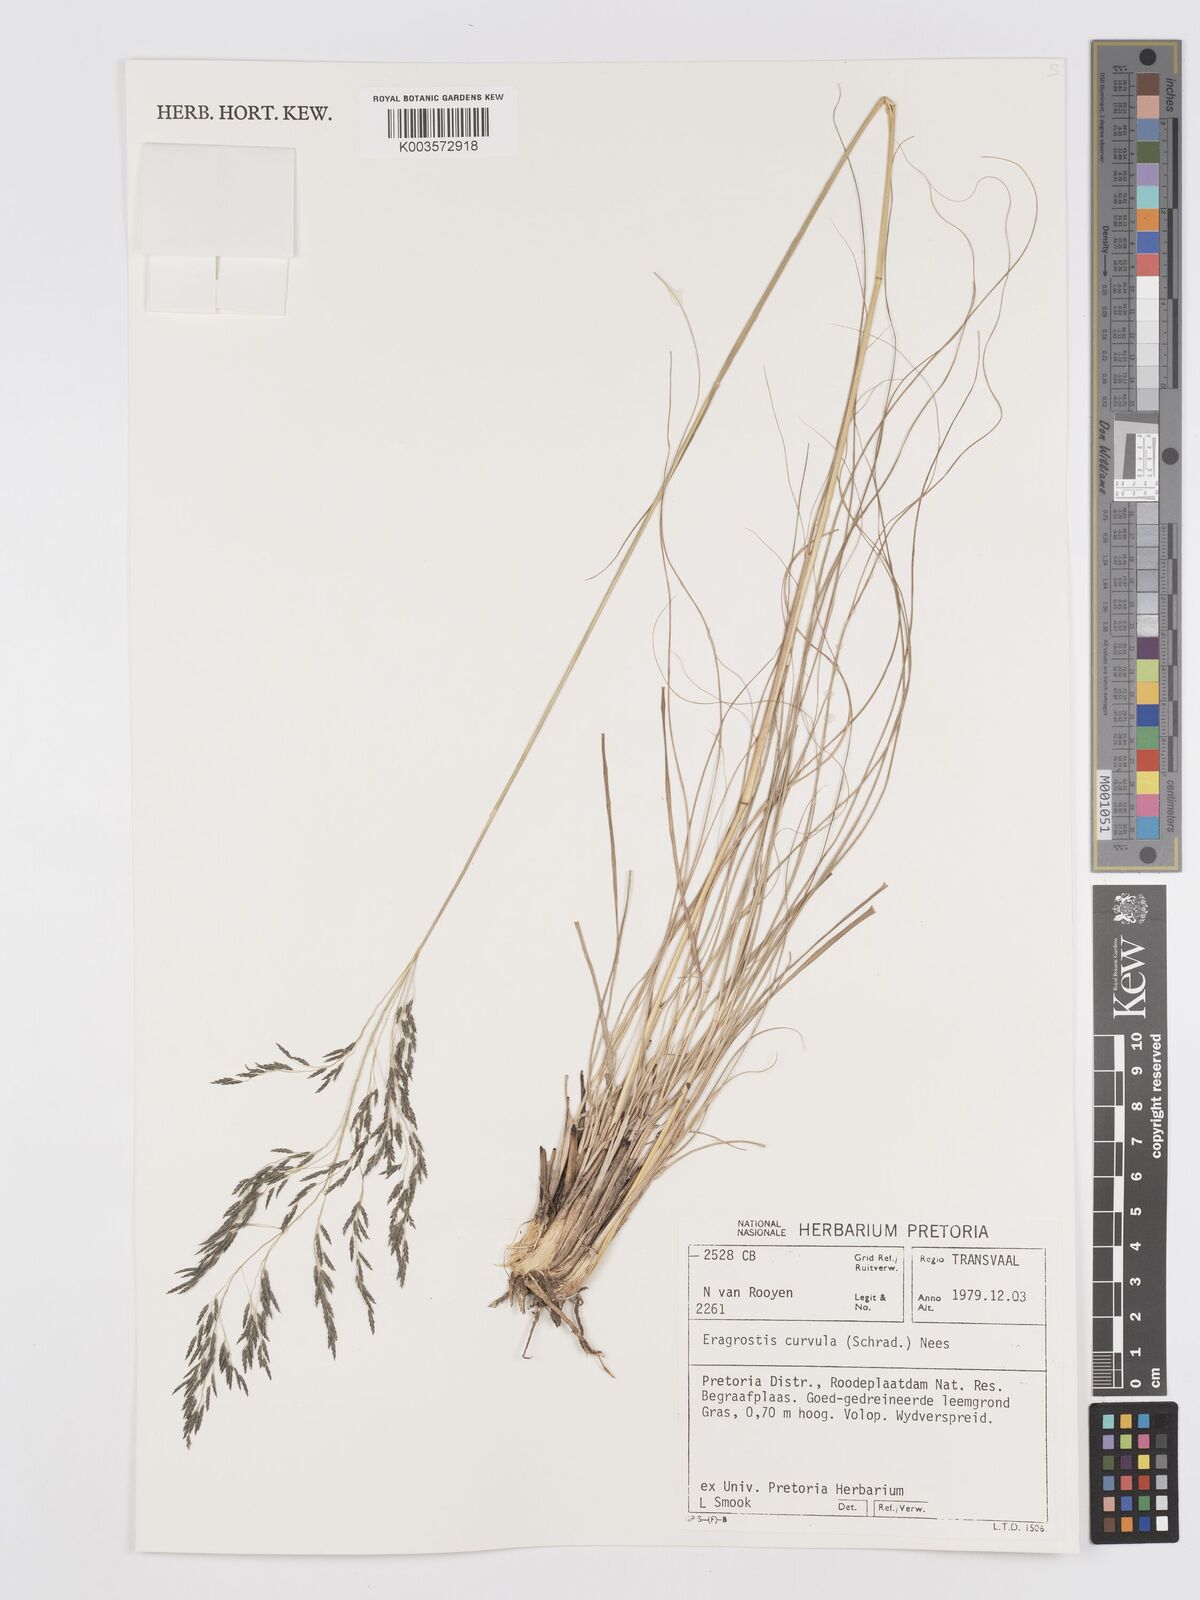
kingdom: Plantae
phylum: Tracheophyta
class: Liliopsida
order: Poales
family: Poaceae
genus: Eragrostis
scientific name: Eragrostis curvula
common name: African love-grass
